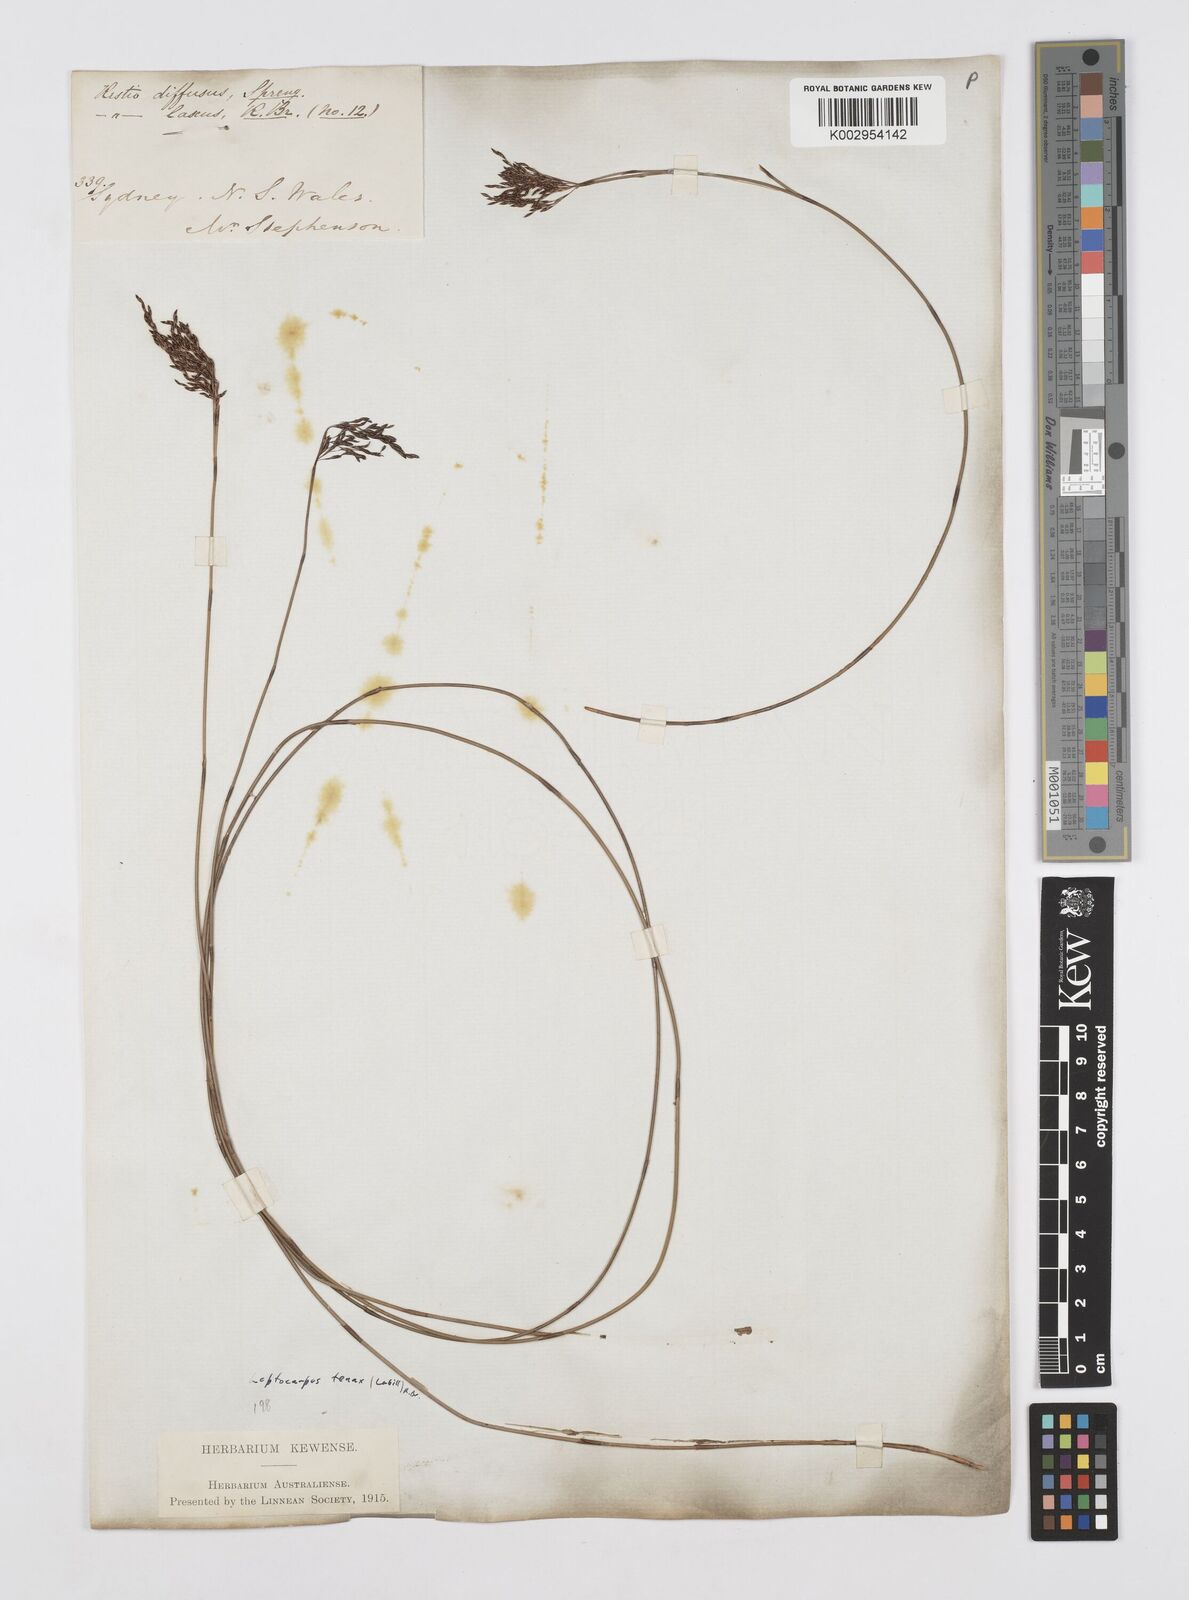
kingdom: Plantae
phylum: Tracheophyta
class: Liliopsida
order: Poales
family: Restionaceae
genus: Leptocarpus
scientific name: Leptocarpus tenax
